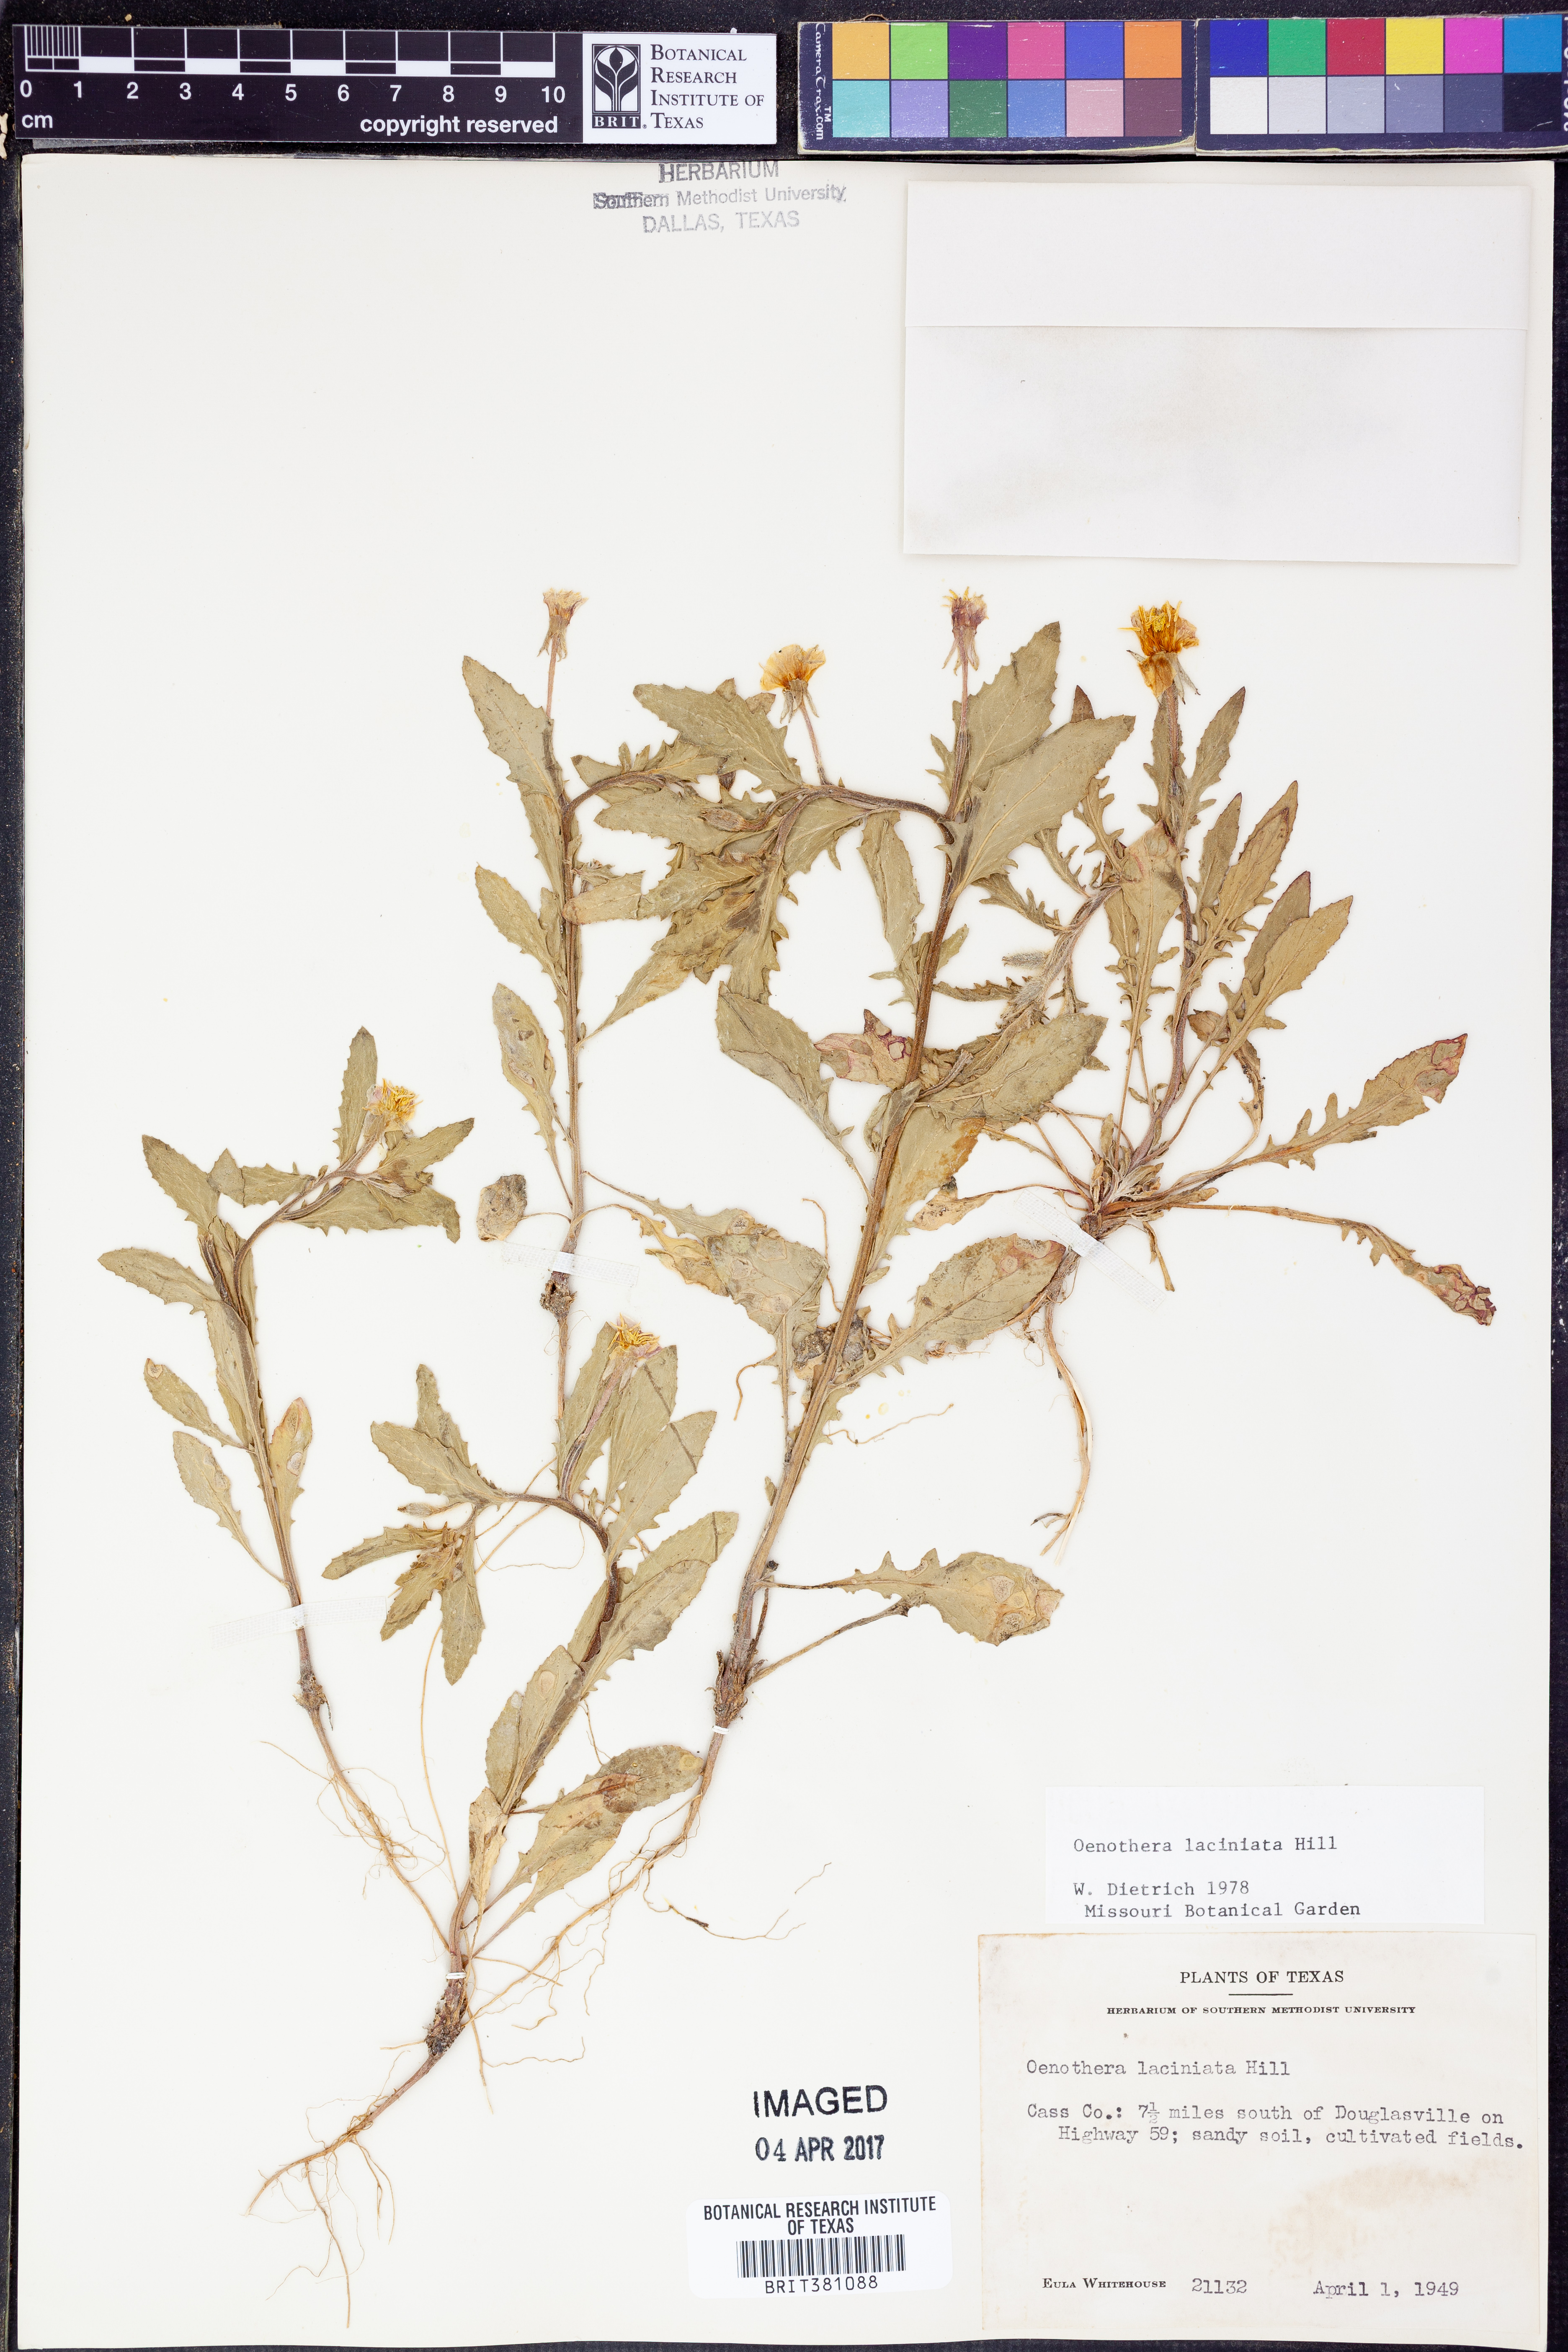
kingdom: Plantae
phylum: Tracheophyta
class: Magnoliopsida
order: Myrtales
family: Onagraceae
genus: Oenothera
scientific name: Oenothera laciniata
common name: Cut-leaved evening-primrose
